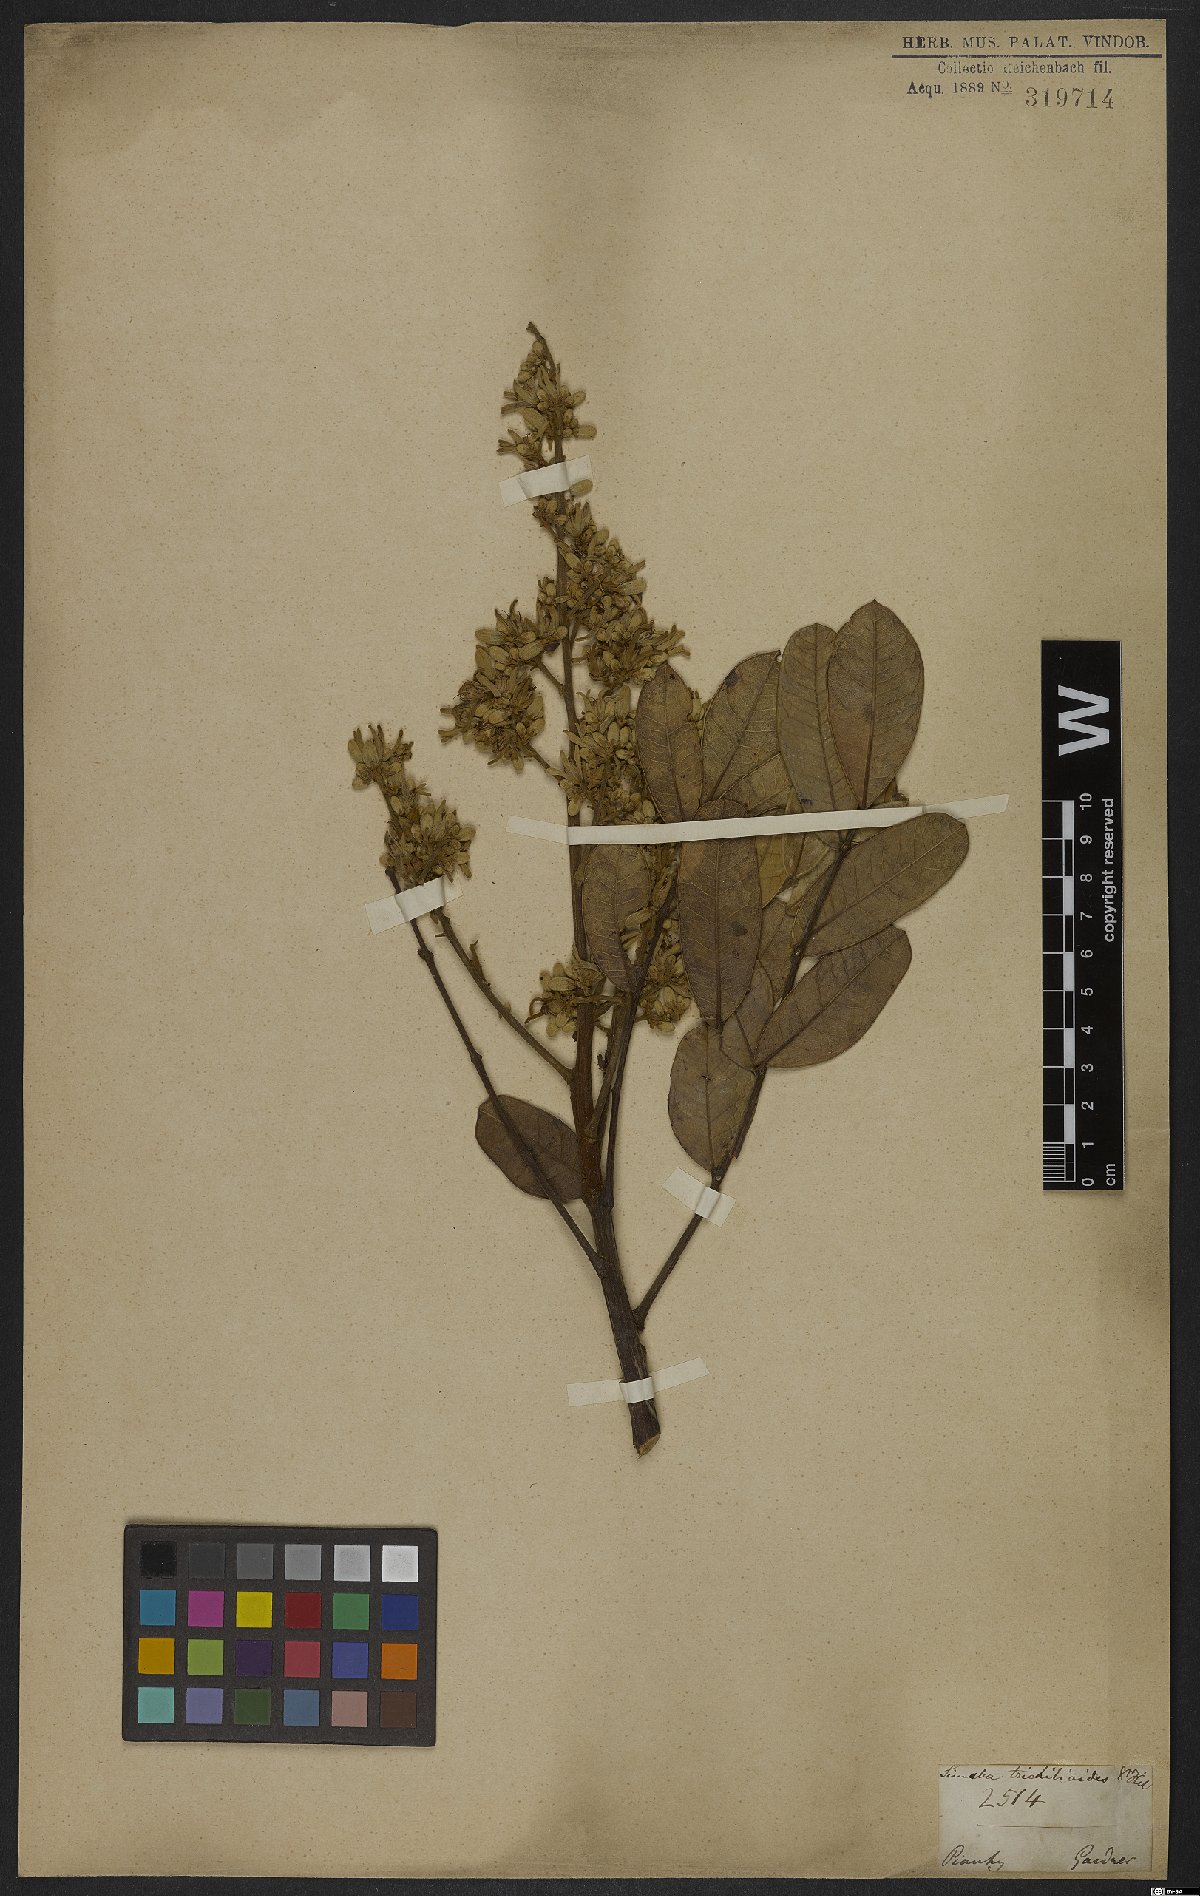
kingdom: Plantae
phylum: Tracheophyta
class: Magnoliopsida
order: Sapindales
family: Simaroubaceae
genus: Homalolepis
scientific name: Homalolepis trichilioides
